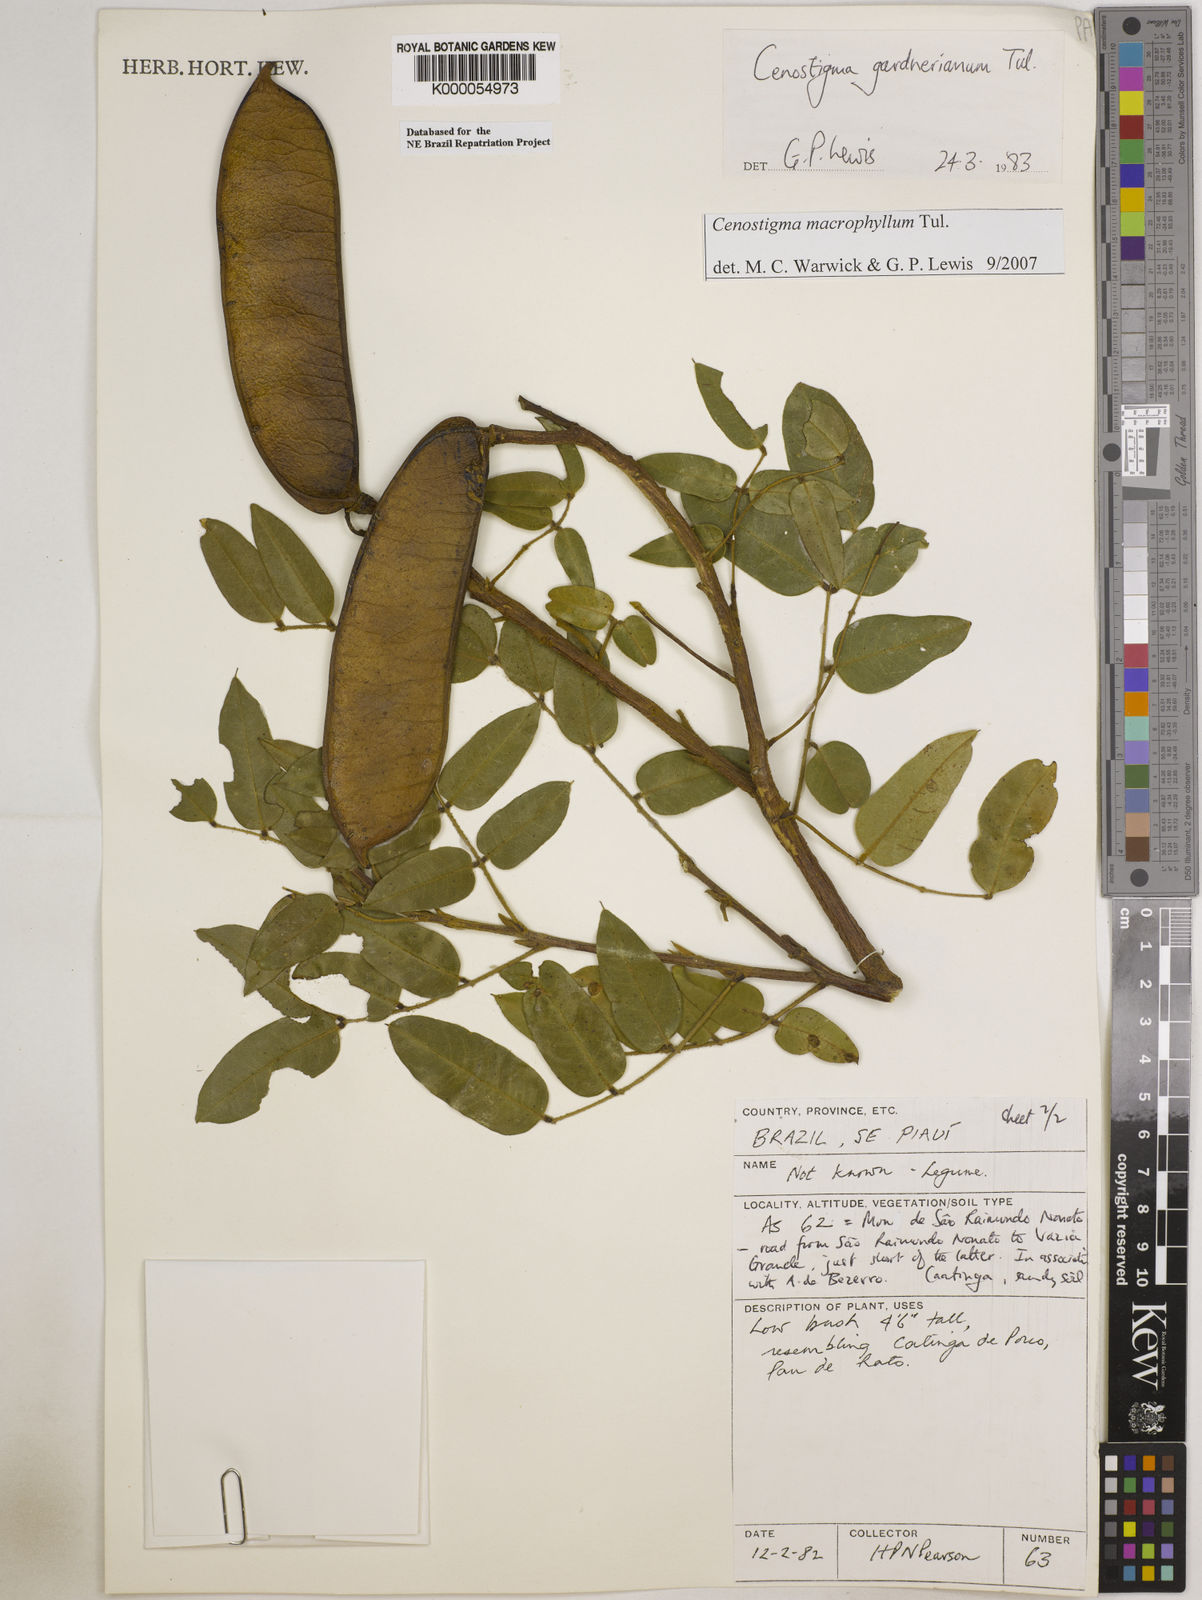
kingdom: Plantae
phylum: Tracheophyta
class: Magnoliopsida
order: Fabales
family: Fabaceae
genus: Cenostigma
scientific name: Cenostigma macrophyllum
